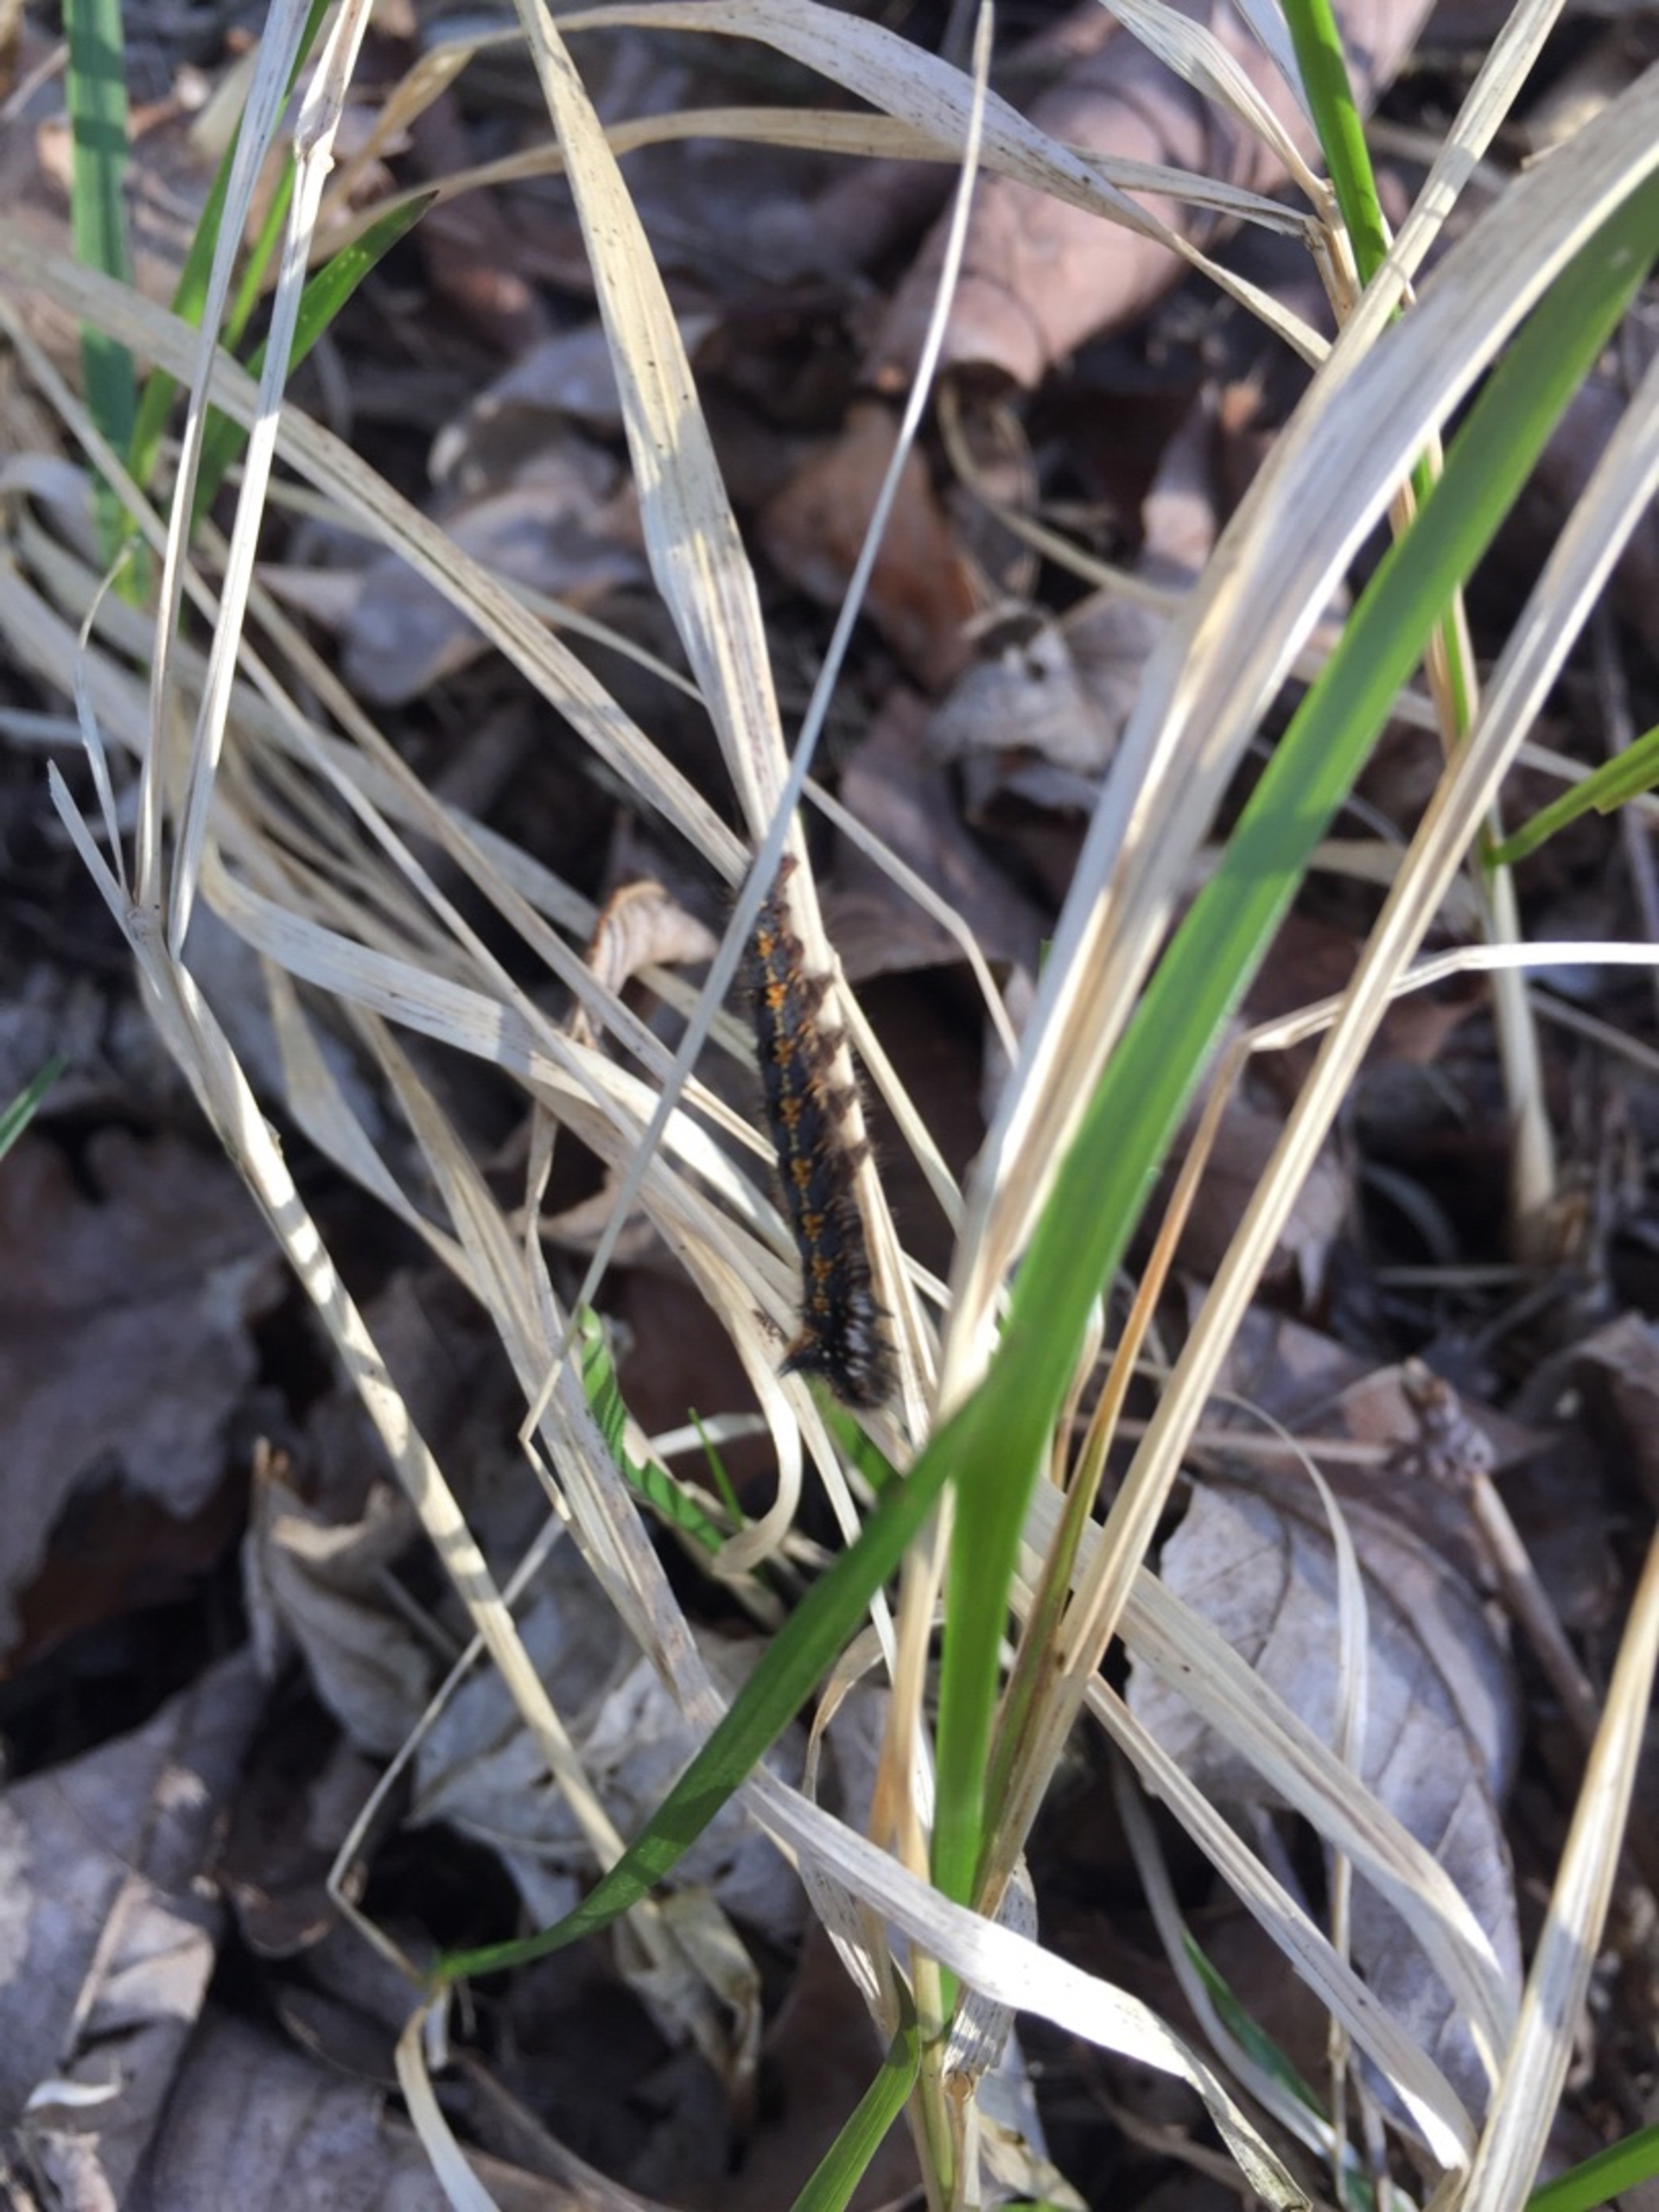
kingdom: Animalia
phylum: Arthropoda
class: Insecta
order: Lepidoptera
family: Lasiocampidae
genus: Euthrix
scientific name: Euthrix potatoria
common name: Græsspinder
